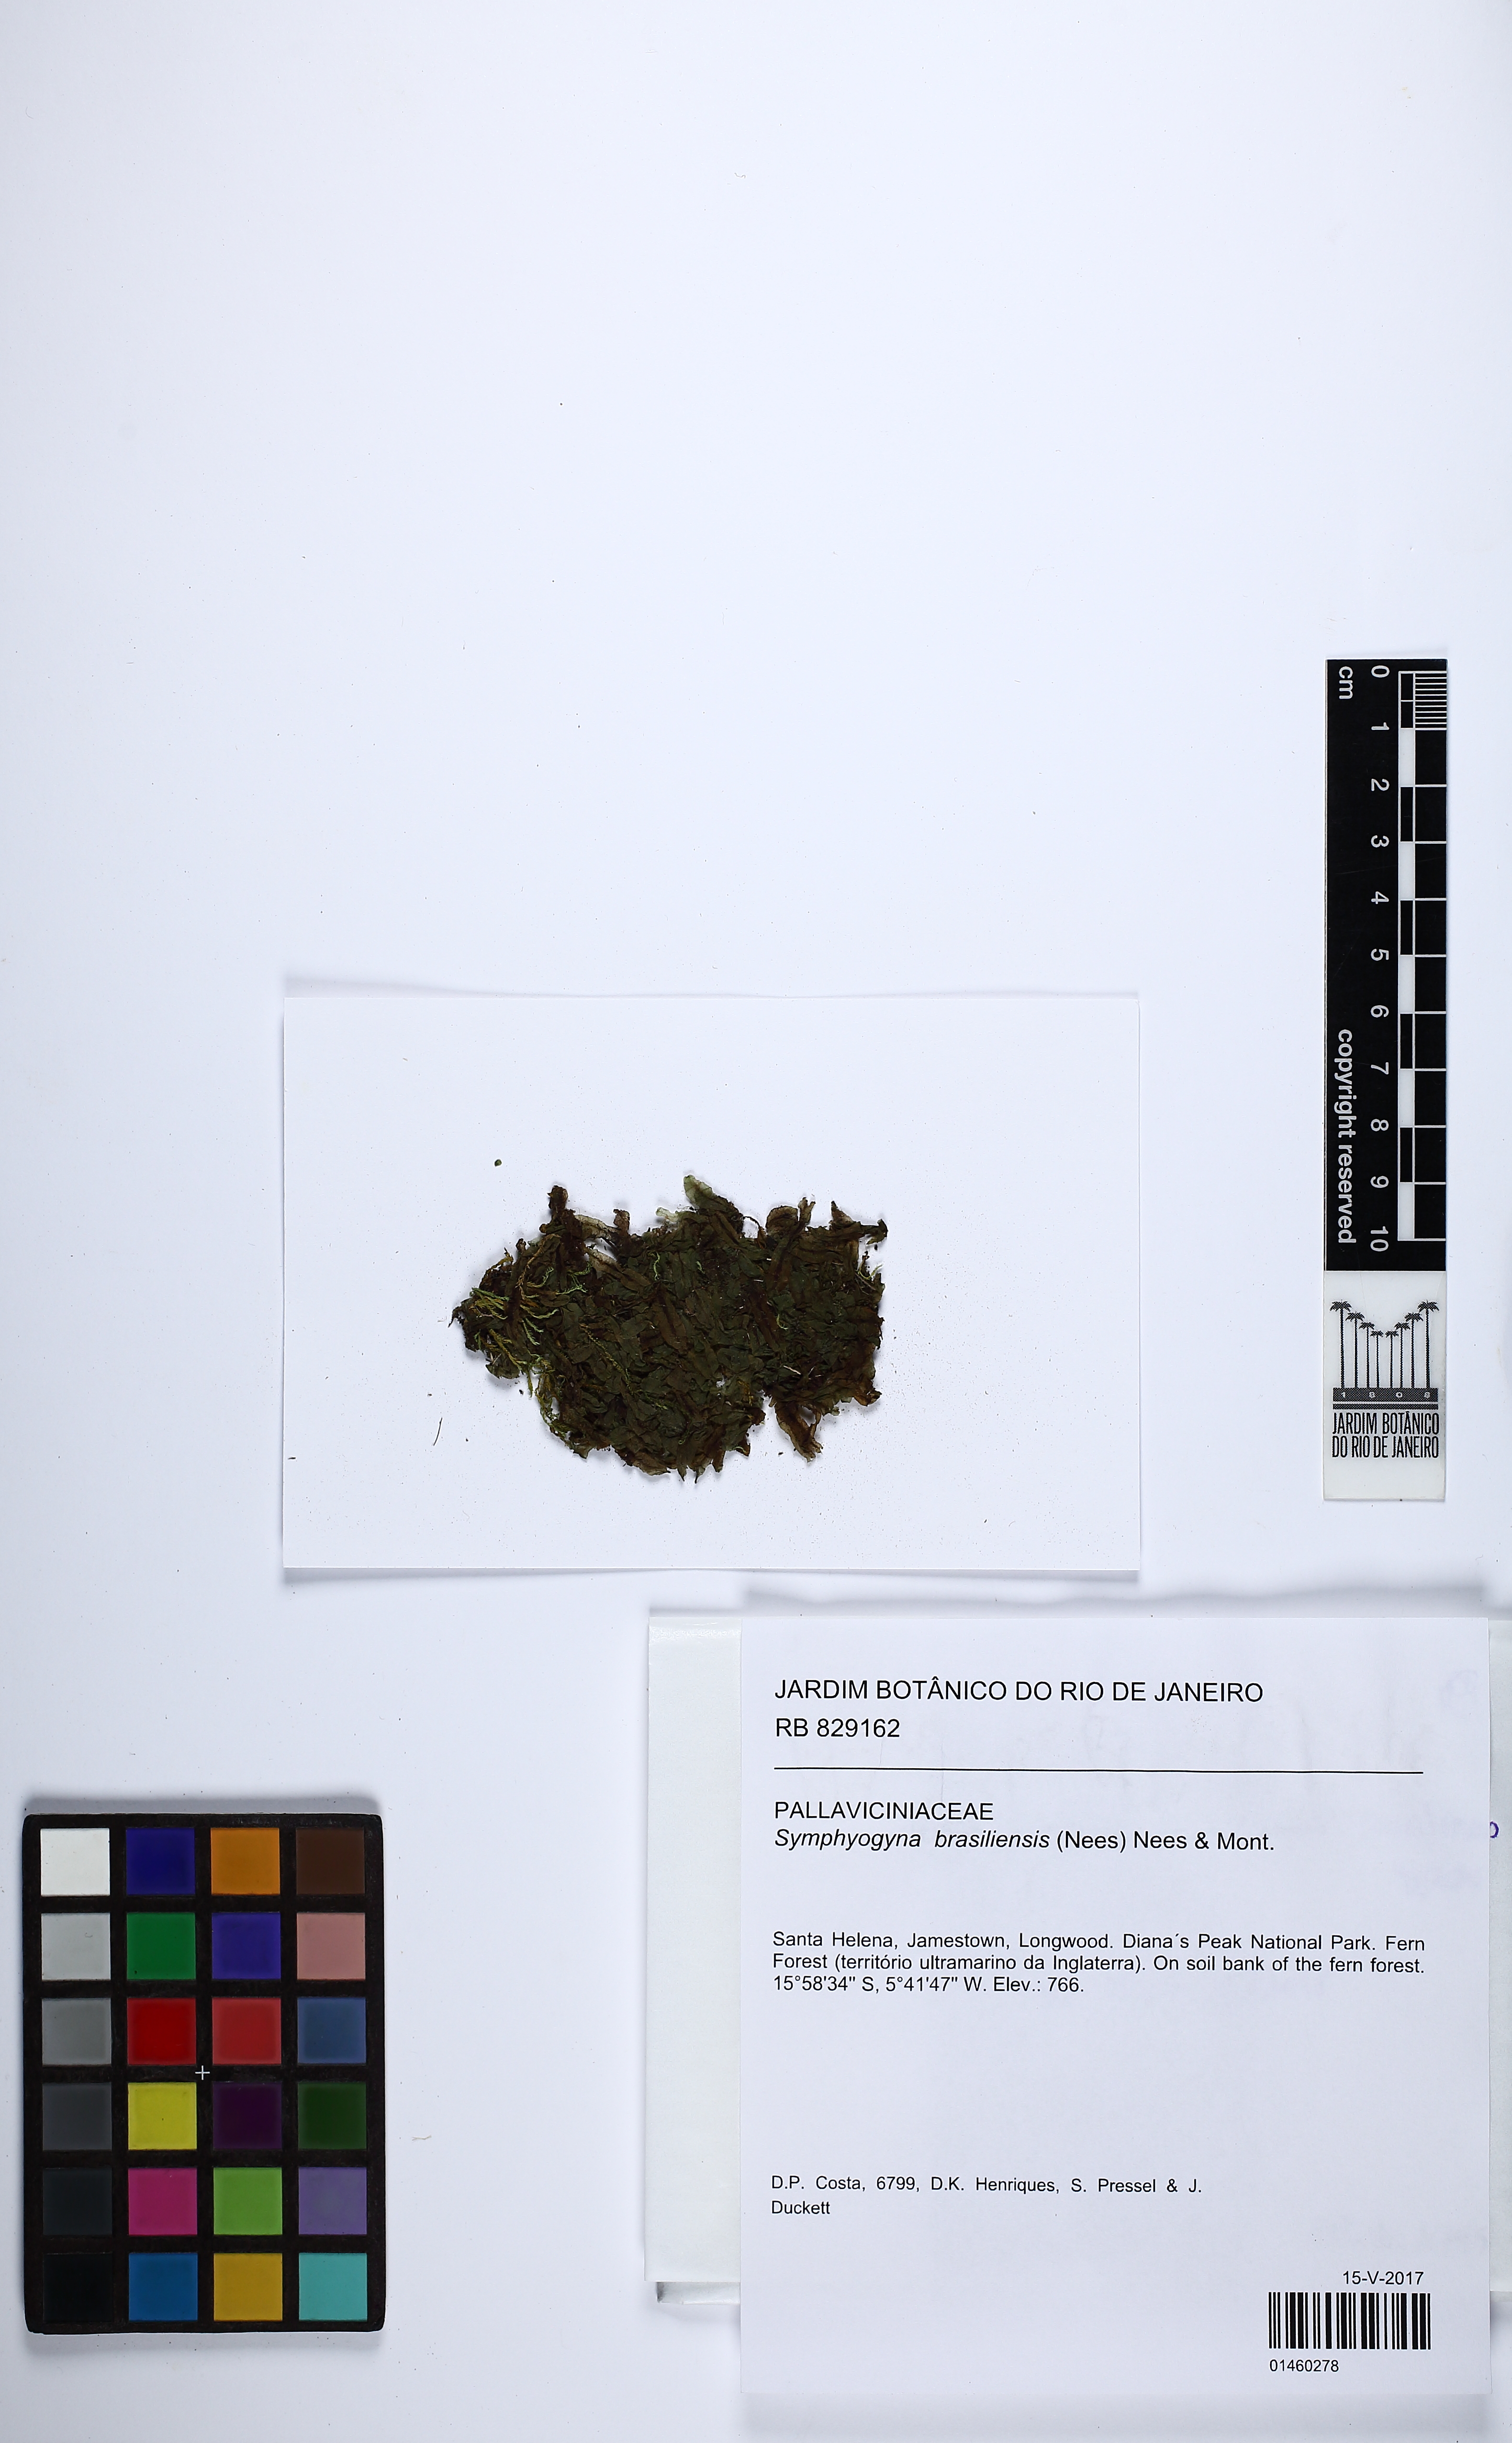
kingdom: Plantae
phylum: Marchantiophyta
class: Jungermanniopsida
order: Pallaviciniales
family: Pallaviciniaceae
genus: Symphyogyna
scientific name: Symphyogyna brasiliensis
